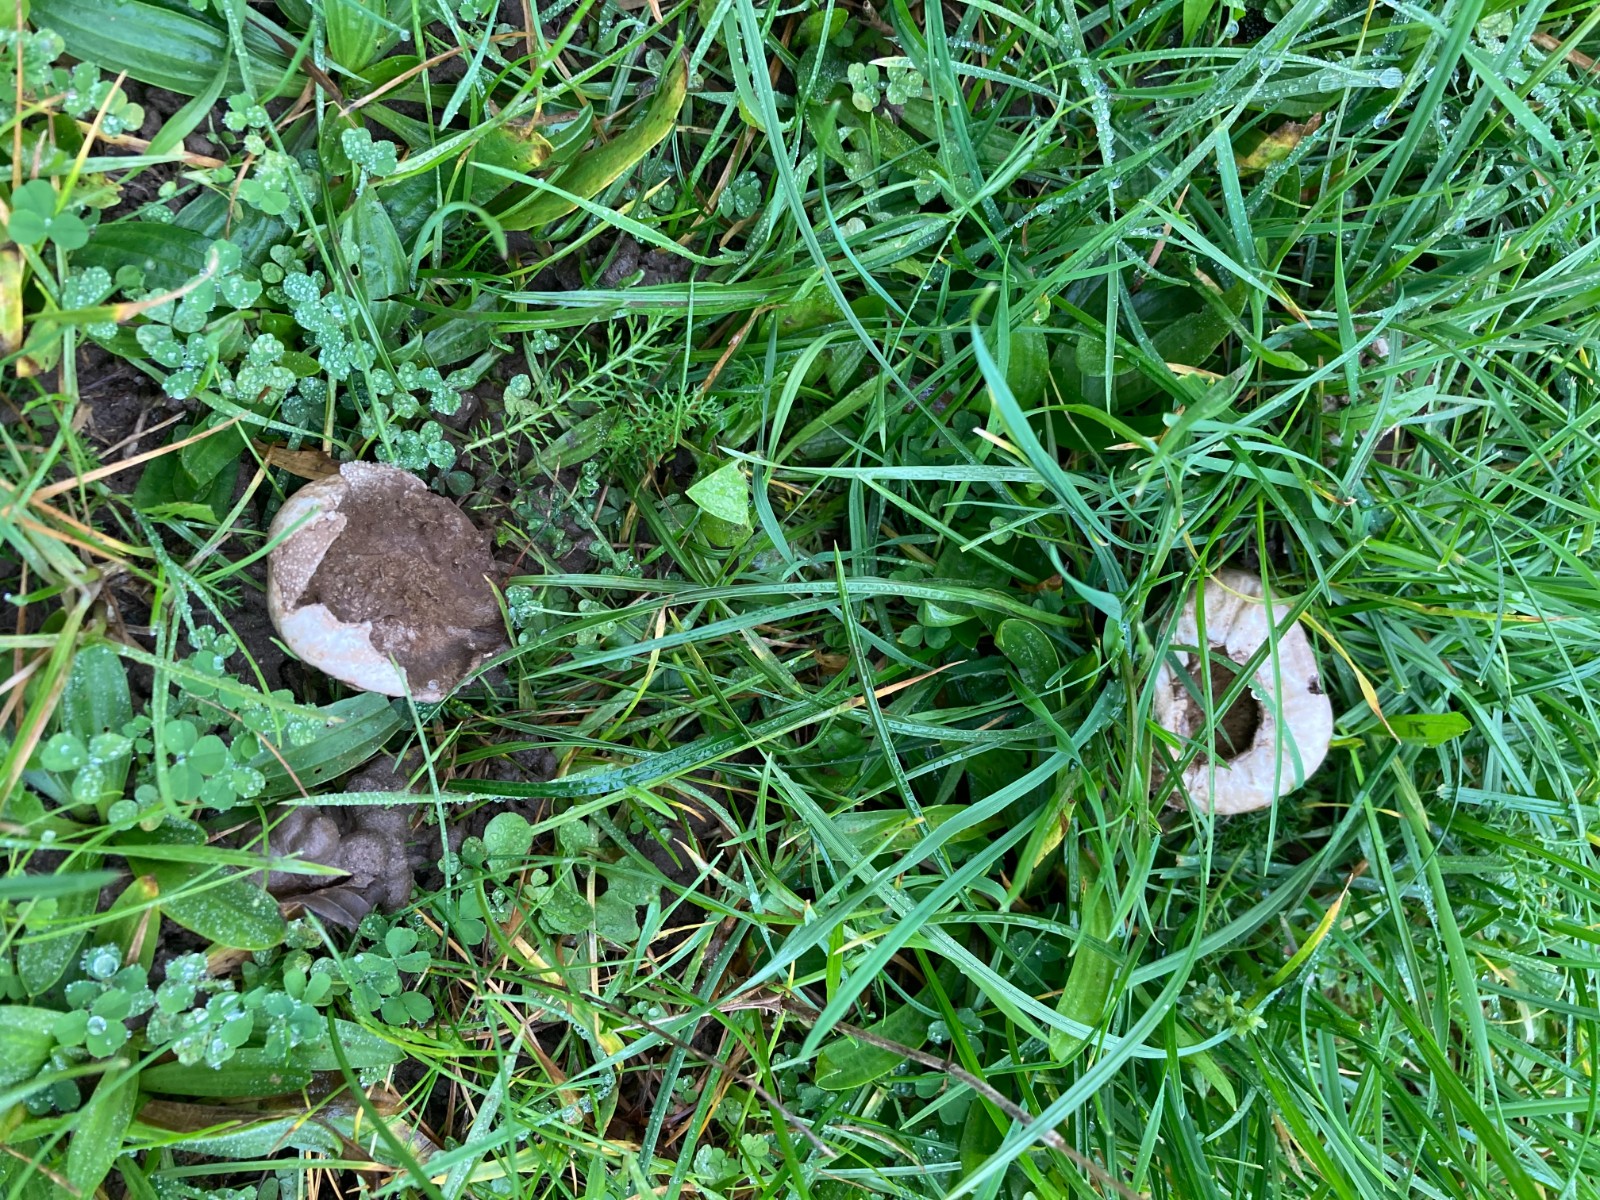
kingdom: Fungi
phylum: Basidiomycota
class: Agaricomycetes
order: Agaricales
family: Lycoperdaceae
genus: Lycoperdon
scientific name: Lycoperdon pratense
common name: flad støvbold
